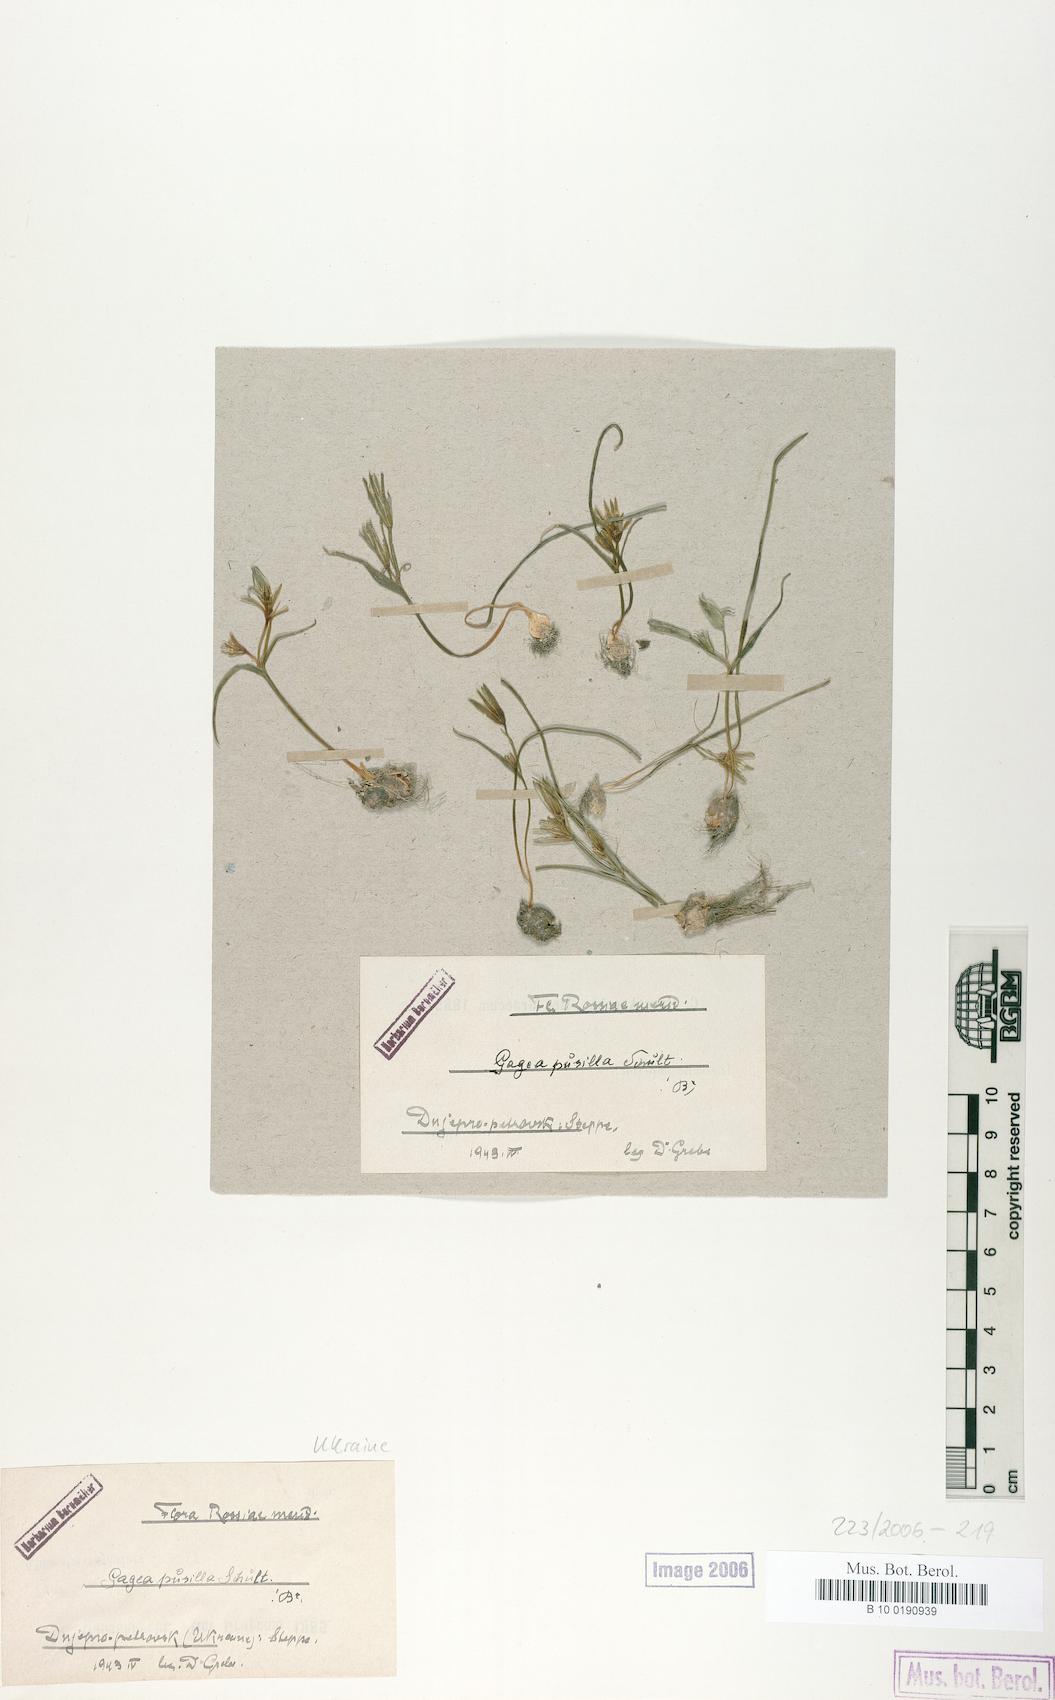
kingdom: Plantae
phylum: Tracheophyta
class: Liliopsida
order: Liliales
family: Liliaceae
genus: Gagea
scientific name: Gagea pusilla
